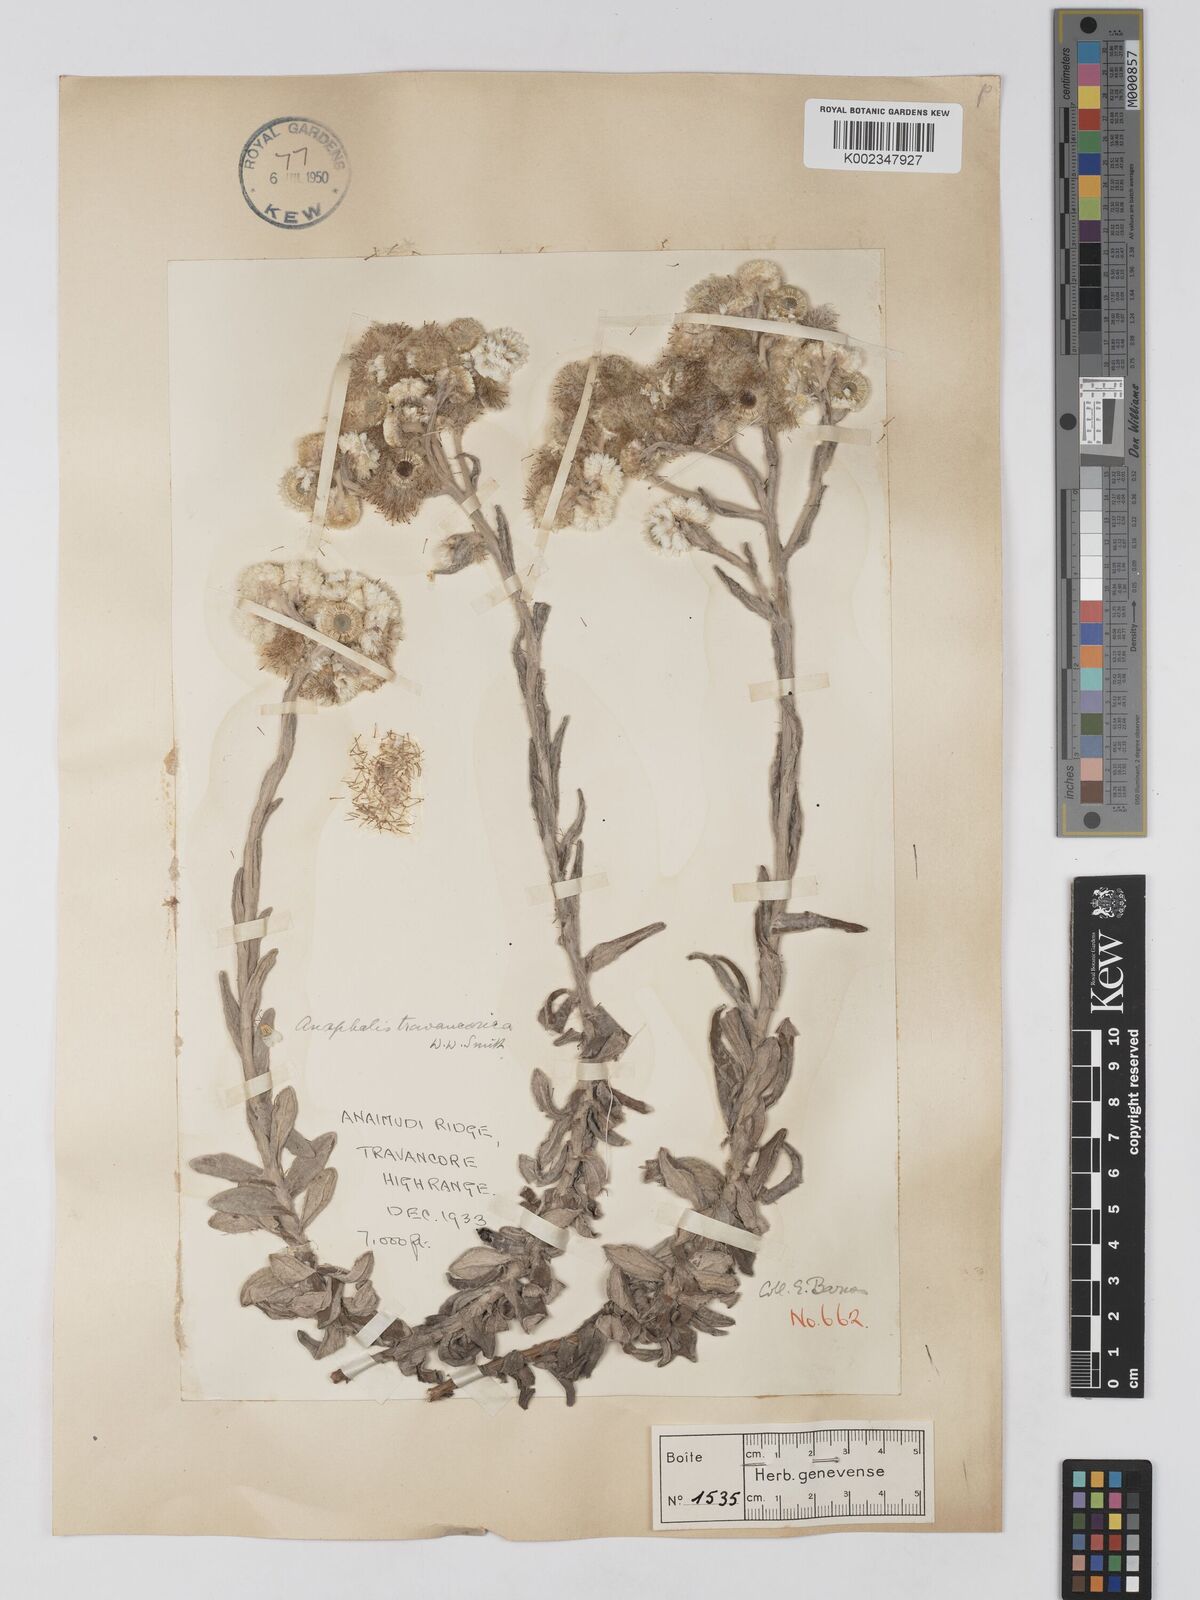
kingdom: Plantae
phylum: Tracheophyta
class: Magnoliopsida
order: Asterales
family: Asteraceae
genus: Anaphalis
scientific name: Anaphalis travancorica
